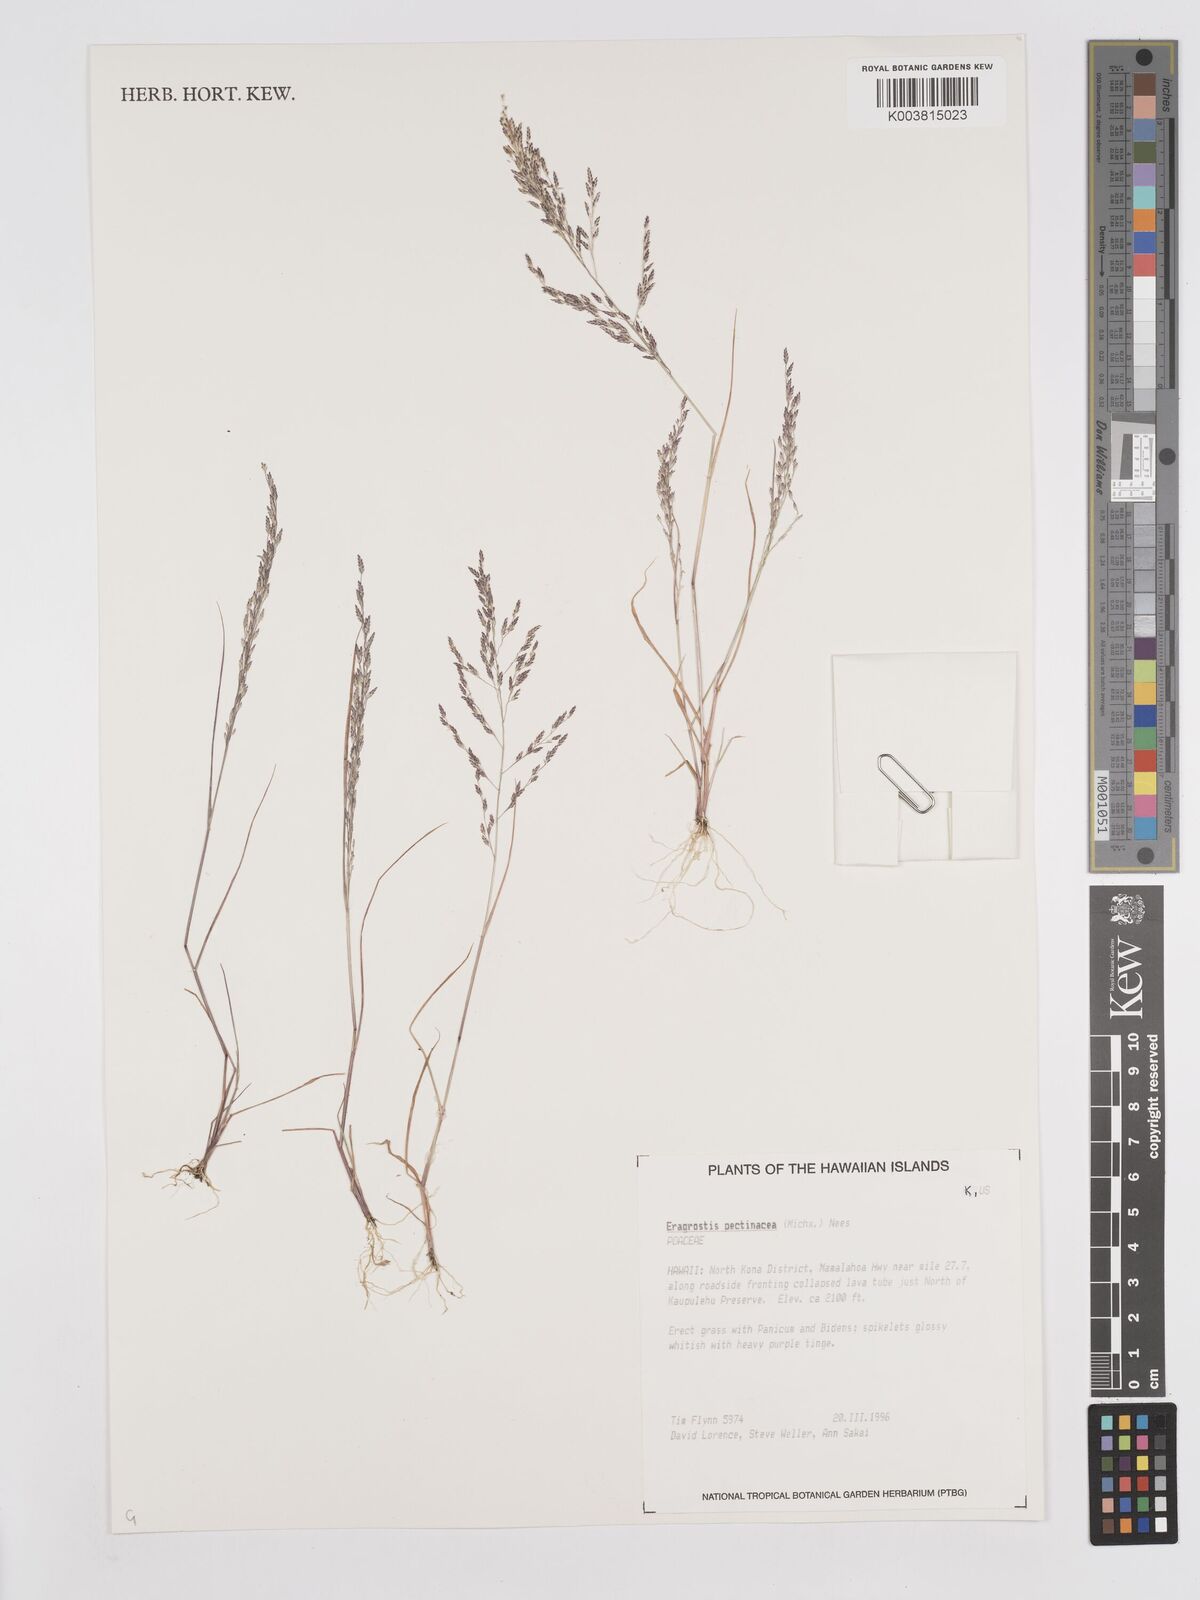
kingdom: Plantae
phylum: Tracheophyta
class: Liliopsida
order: Poales
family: Poaceae
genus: Eragrostis
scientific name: Eragrostis pectinacea
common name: Tufted lovegrass
